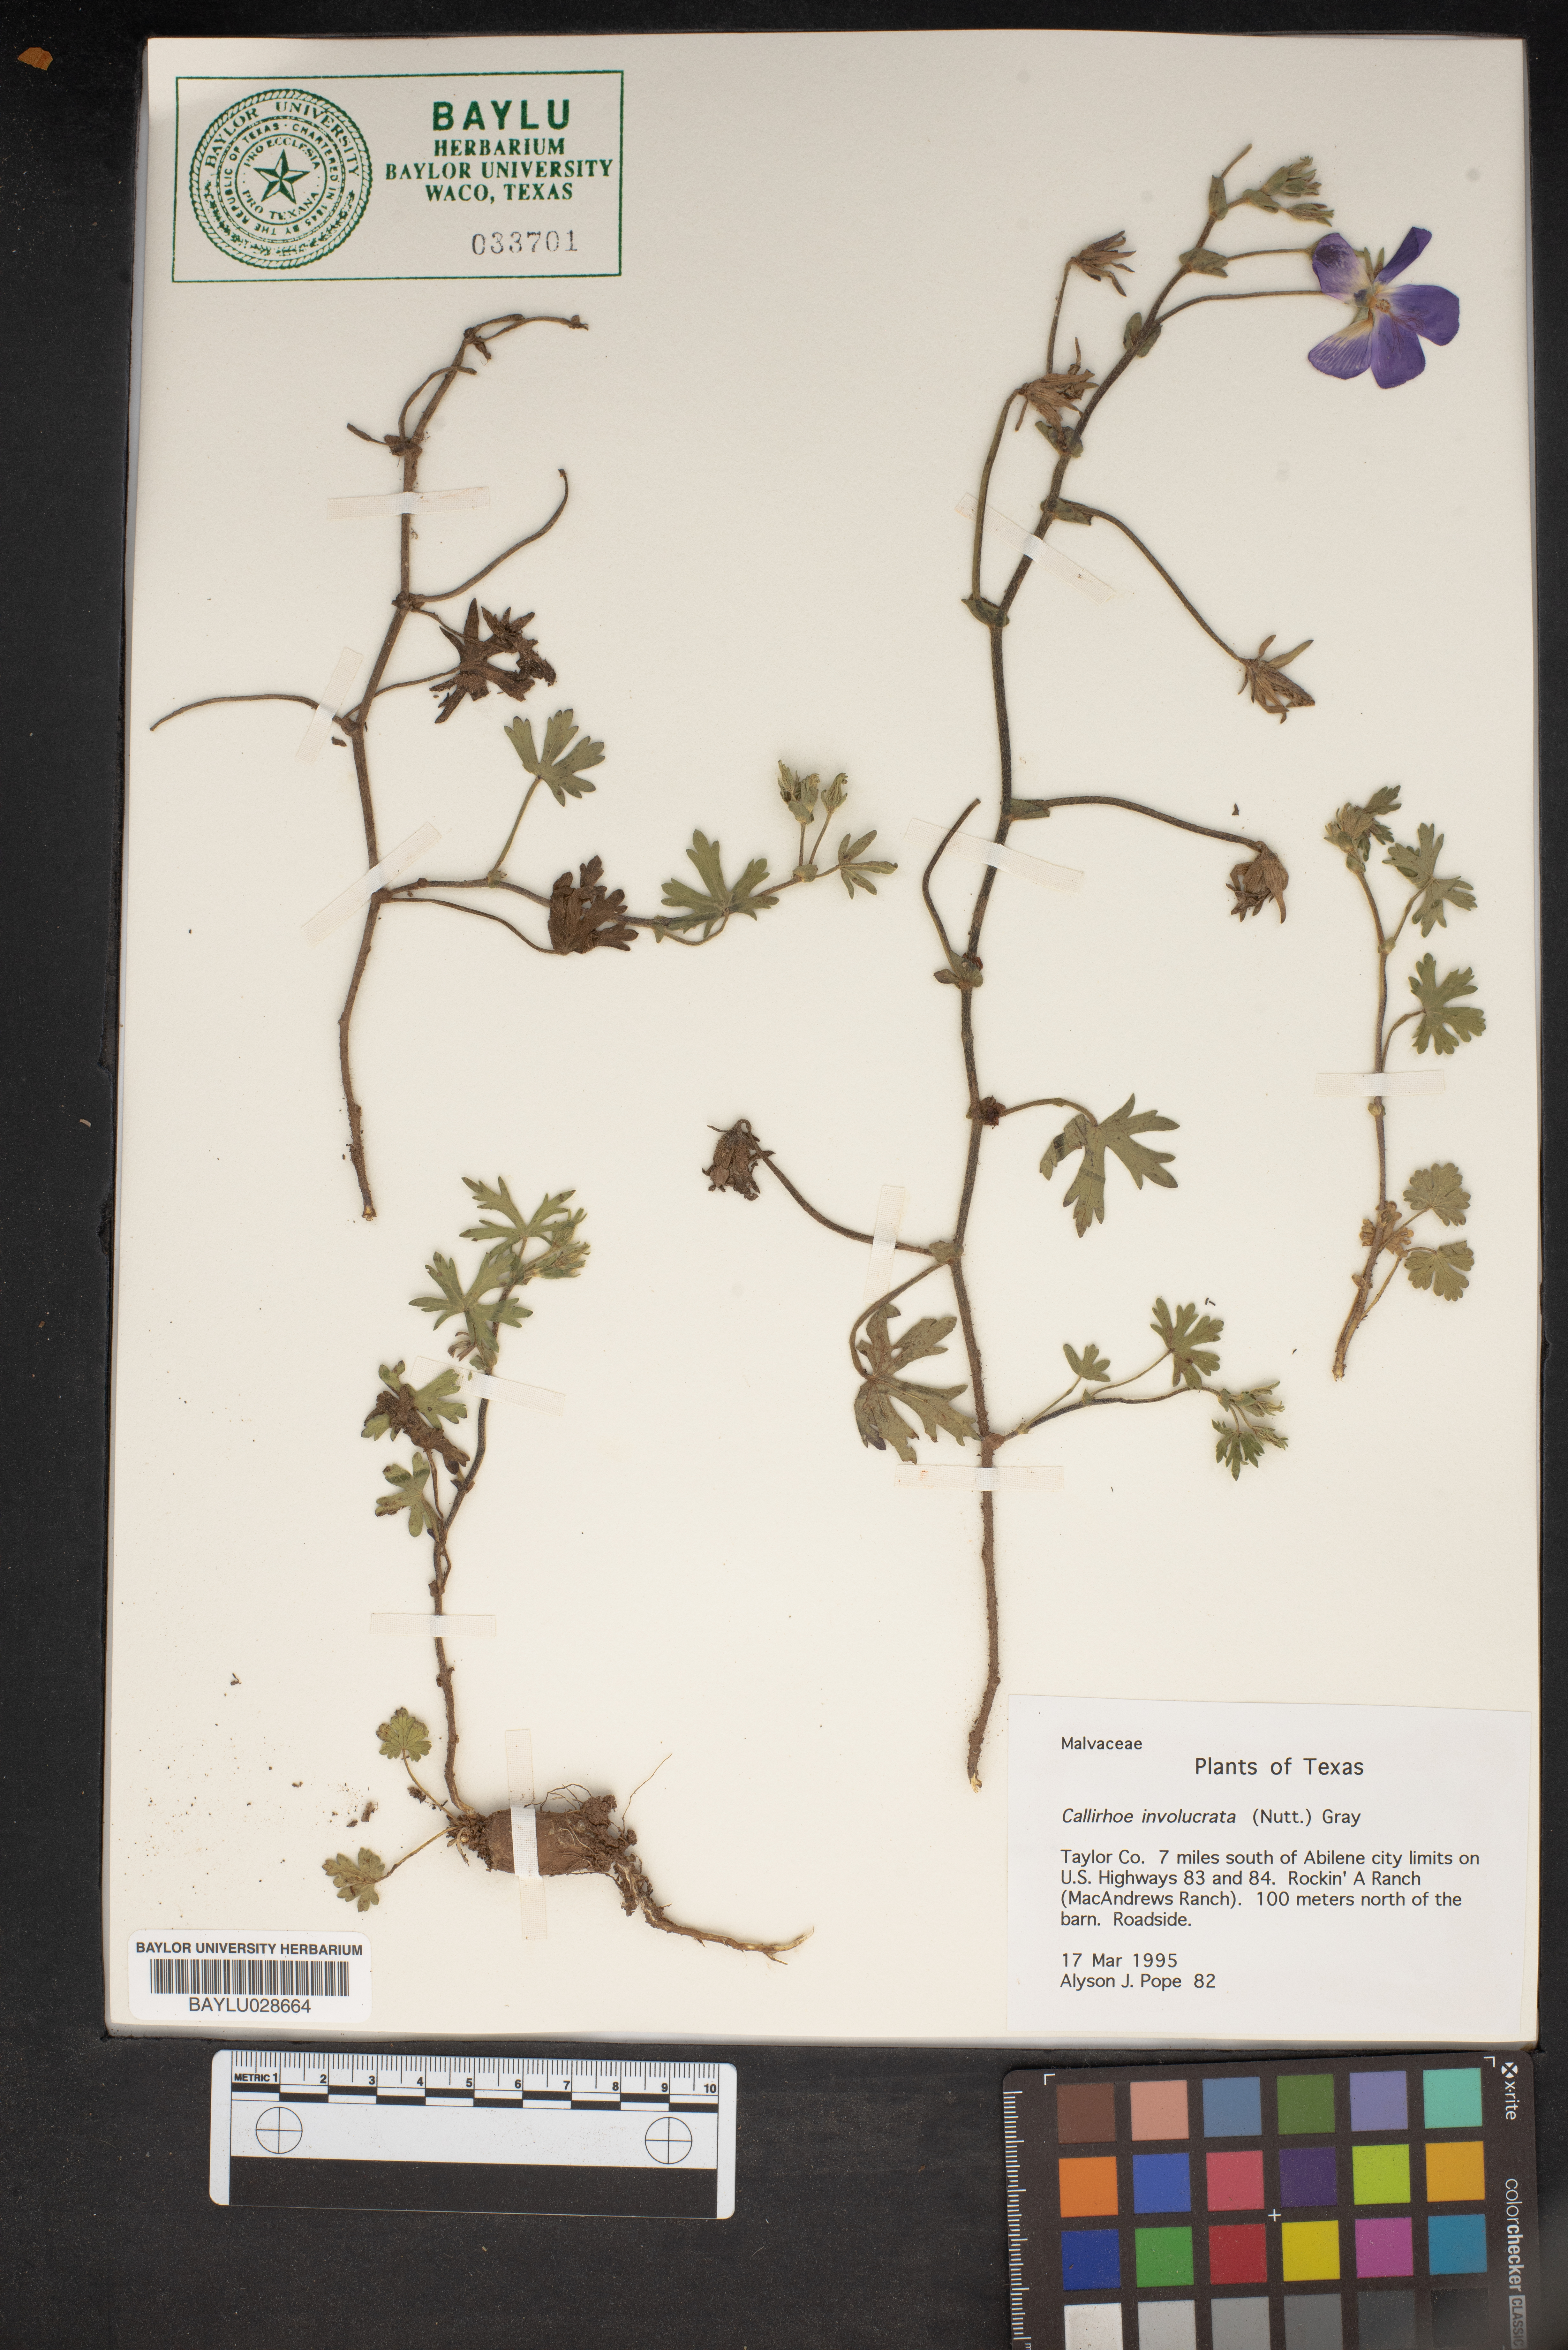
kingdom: Plantae
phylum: Tracheophyta
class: Magnoliopsida
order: Malvales
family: Malvaceae
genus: Callirhoe
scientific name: Callirhoe involucrata
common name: Purple poppy-mallow
